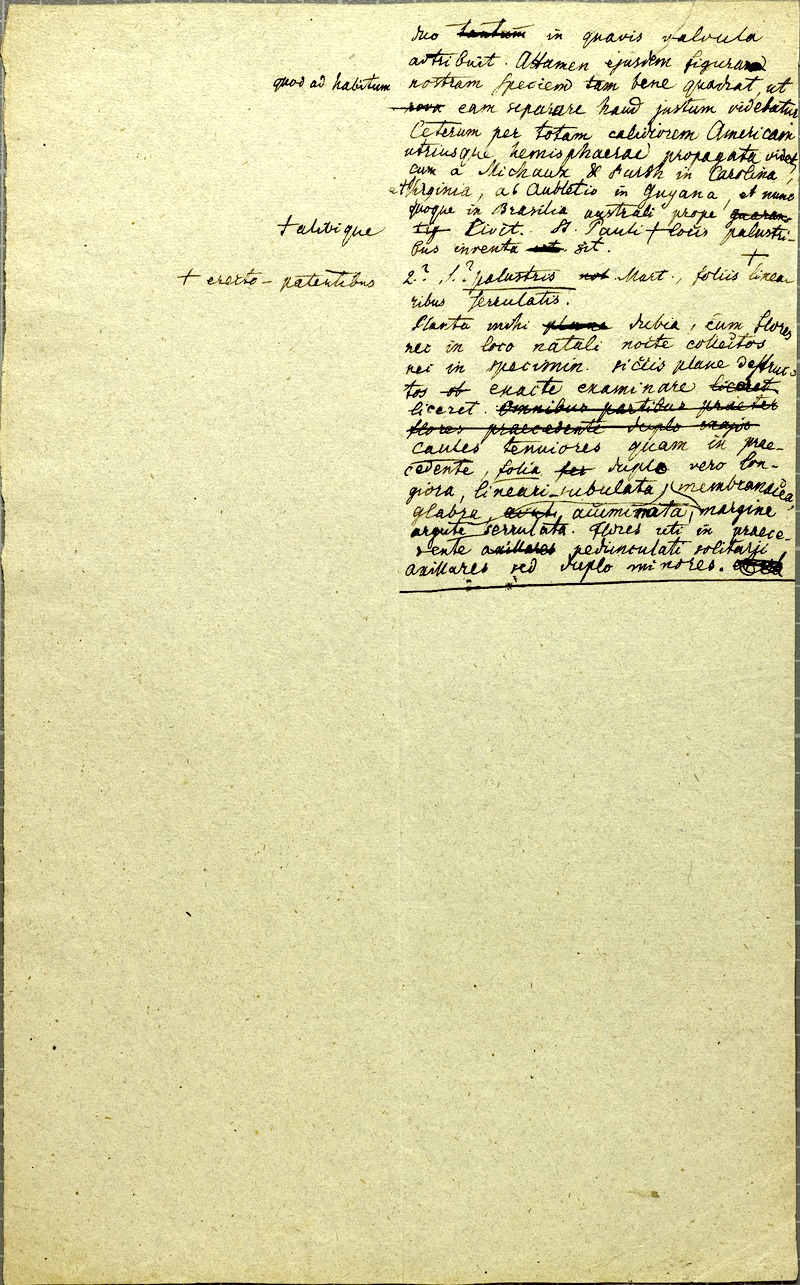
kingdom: Plantae
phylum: Tracheophyta
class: Liliopsida
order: Poales
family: Mayacaceae
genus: Mayaca
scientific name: Mayaca fluviatilis
